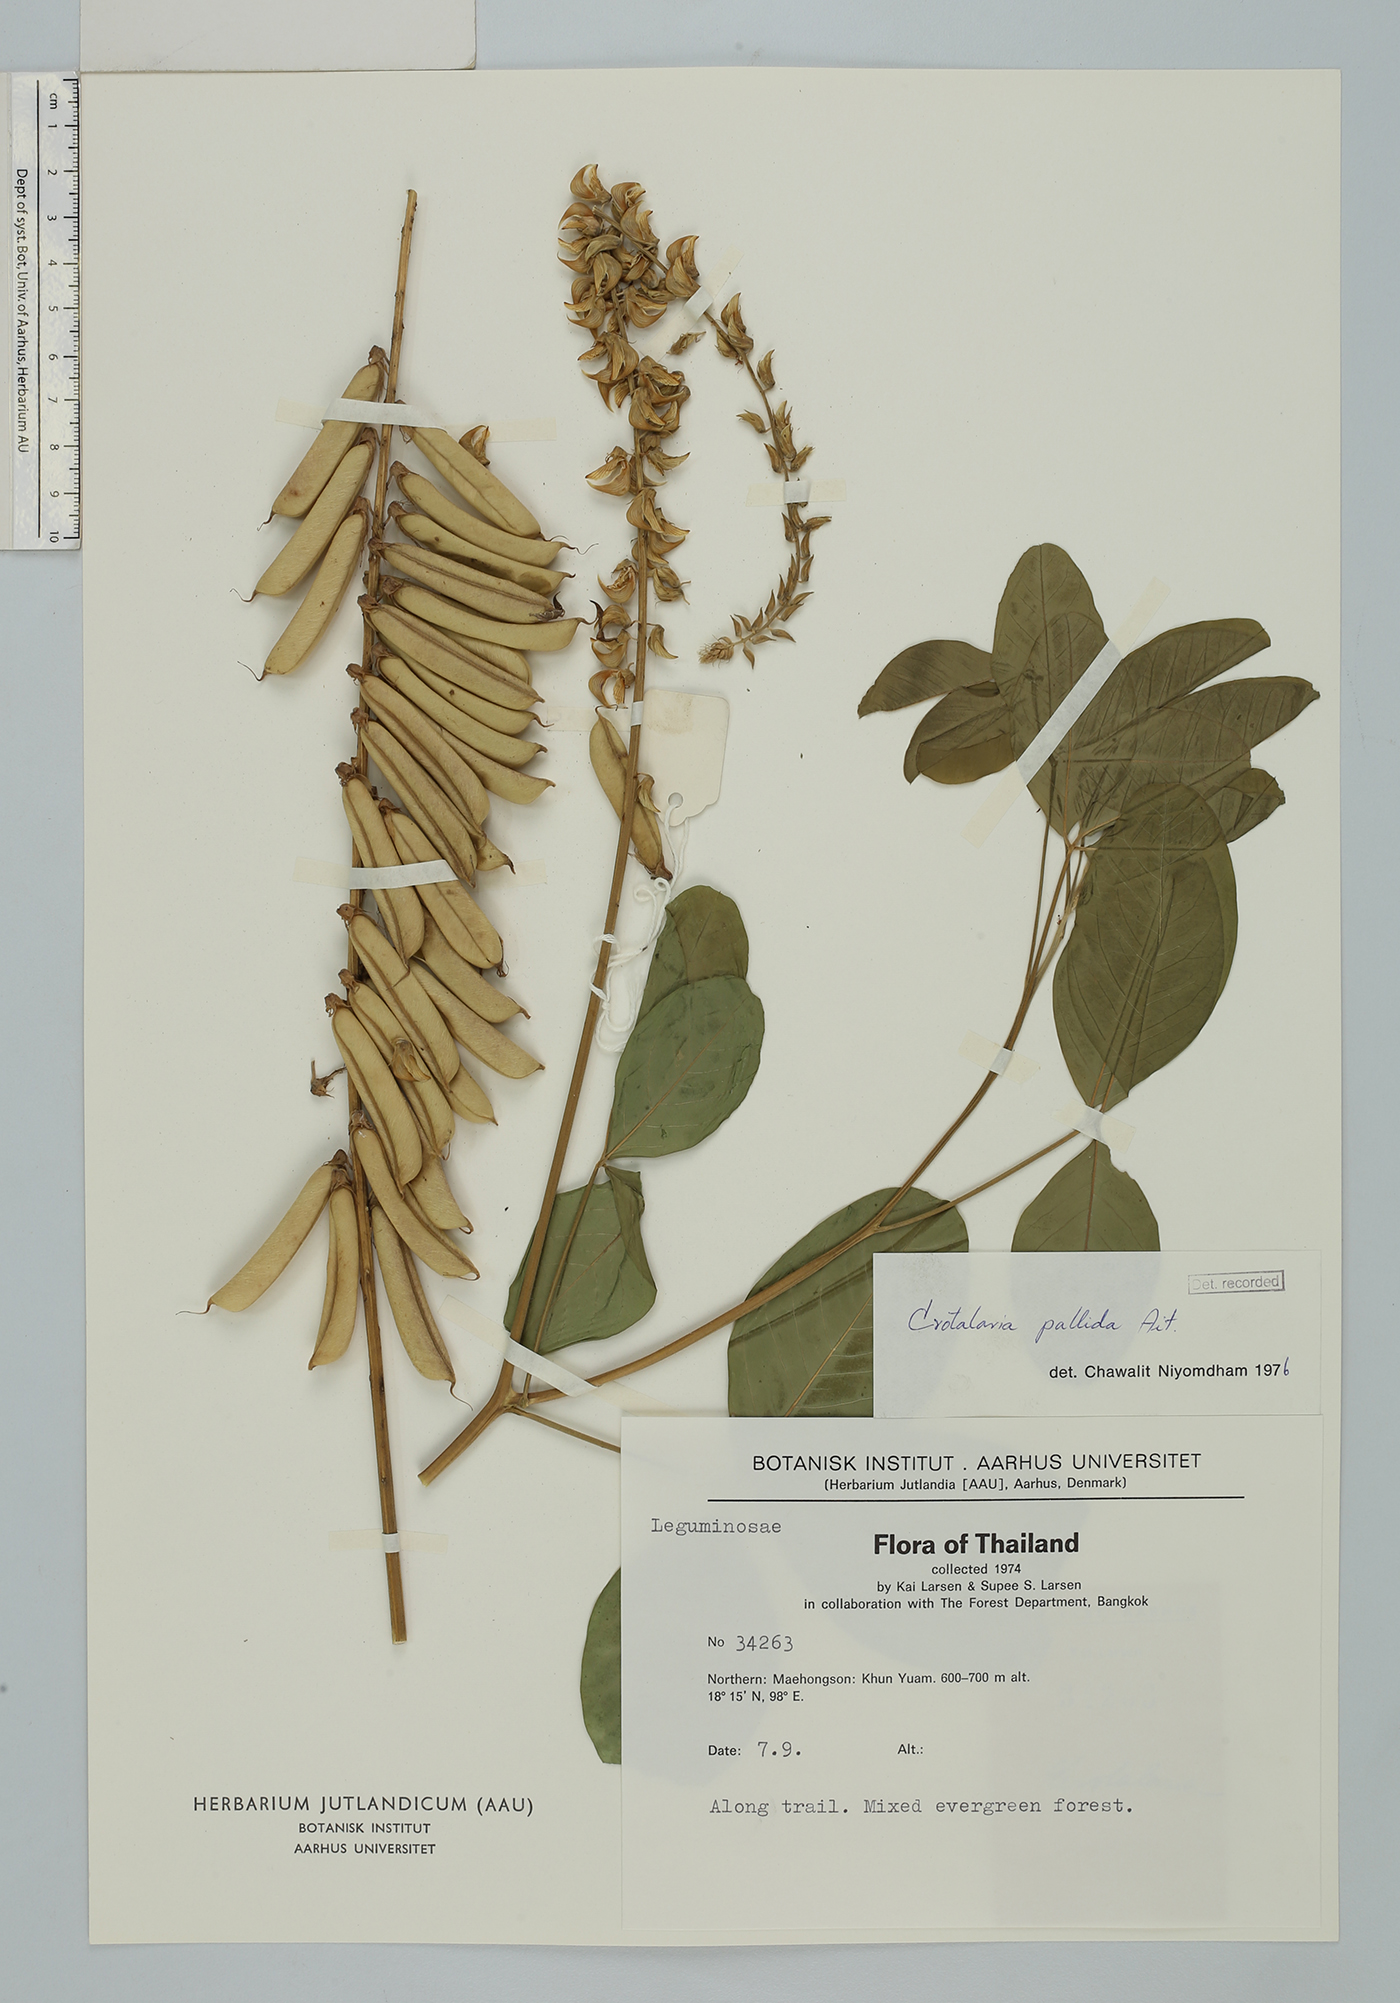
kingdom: Plantae
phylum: Tracheophyta
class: Magnoliopsida
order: Fabales
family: Fabaceae
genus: Crotalaria
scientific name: Crotalaria pallida
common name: Smooth rattlebox
